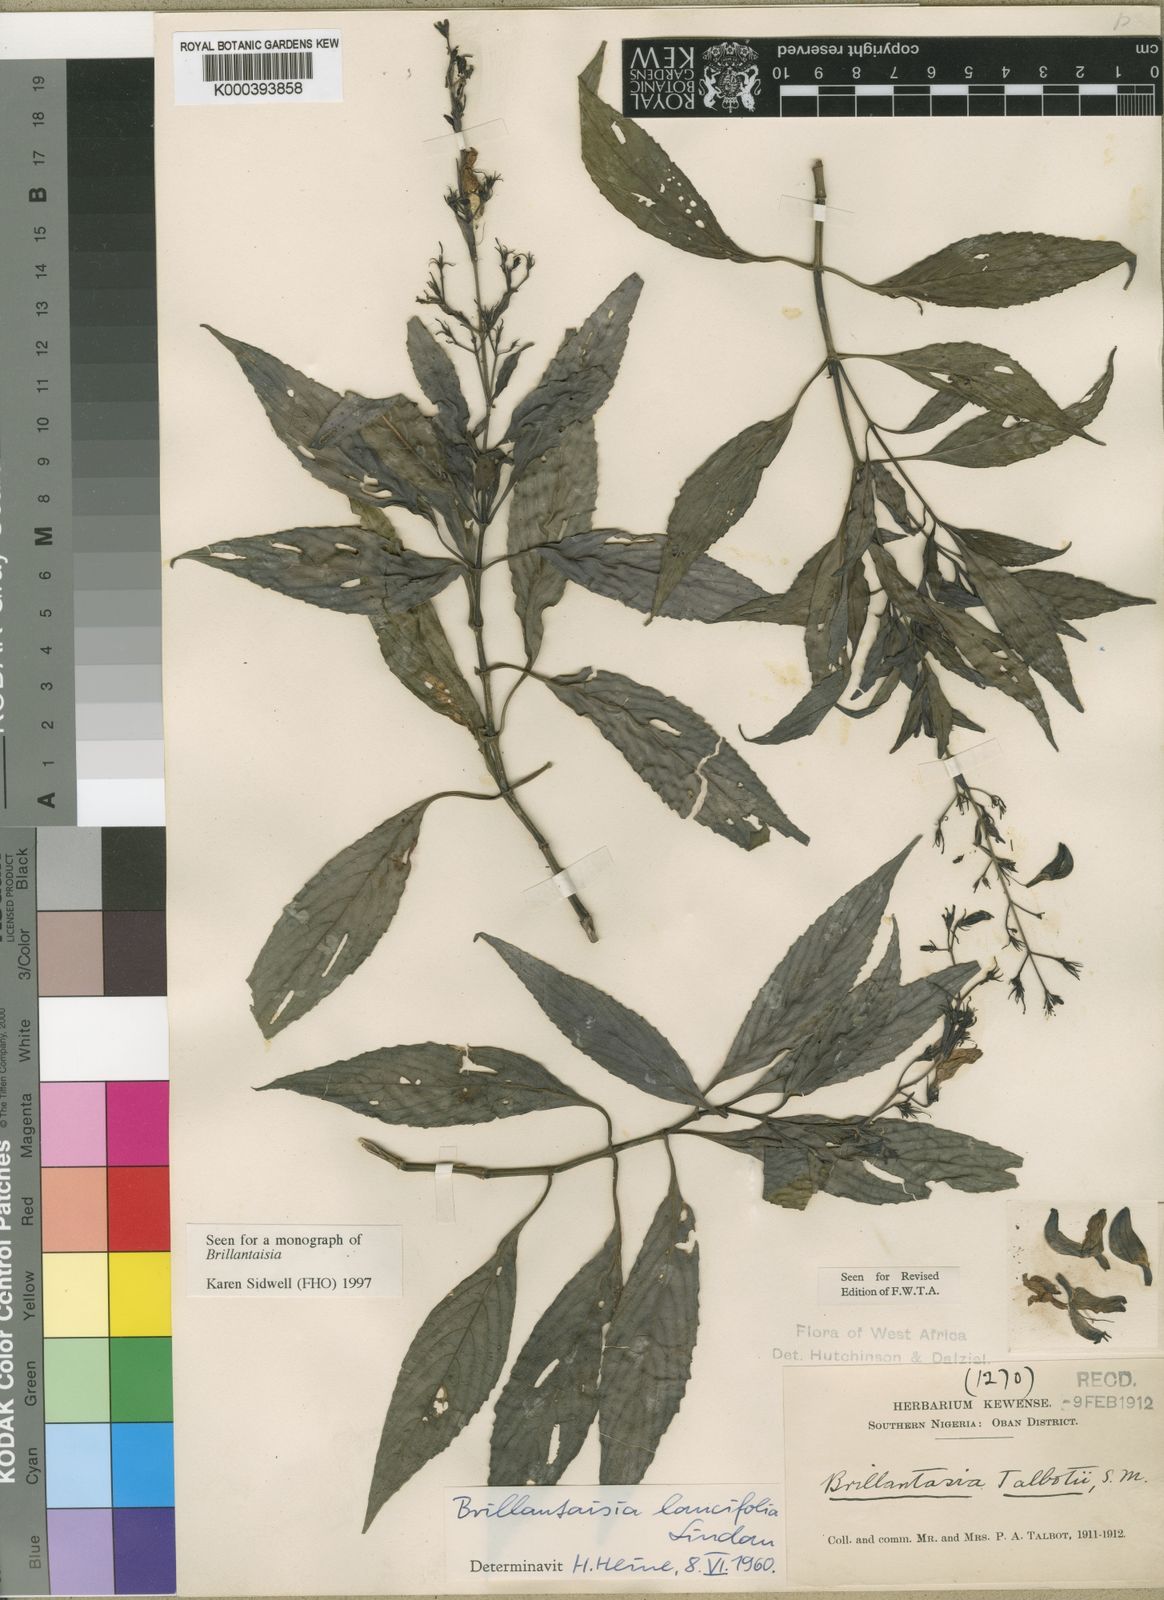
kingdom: Plantae
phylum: Tracheophyta
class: Magnoliopsida
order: Lamiales
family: Acanthaceae
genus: Brillantaisia
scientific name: Brillantaisia lancifolia
